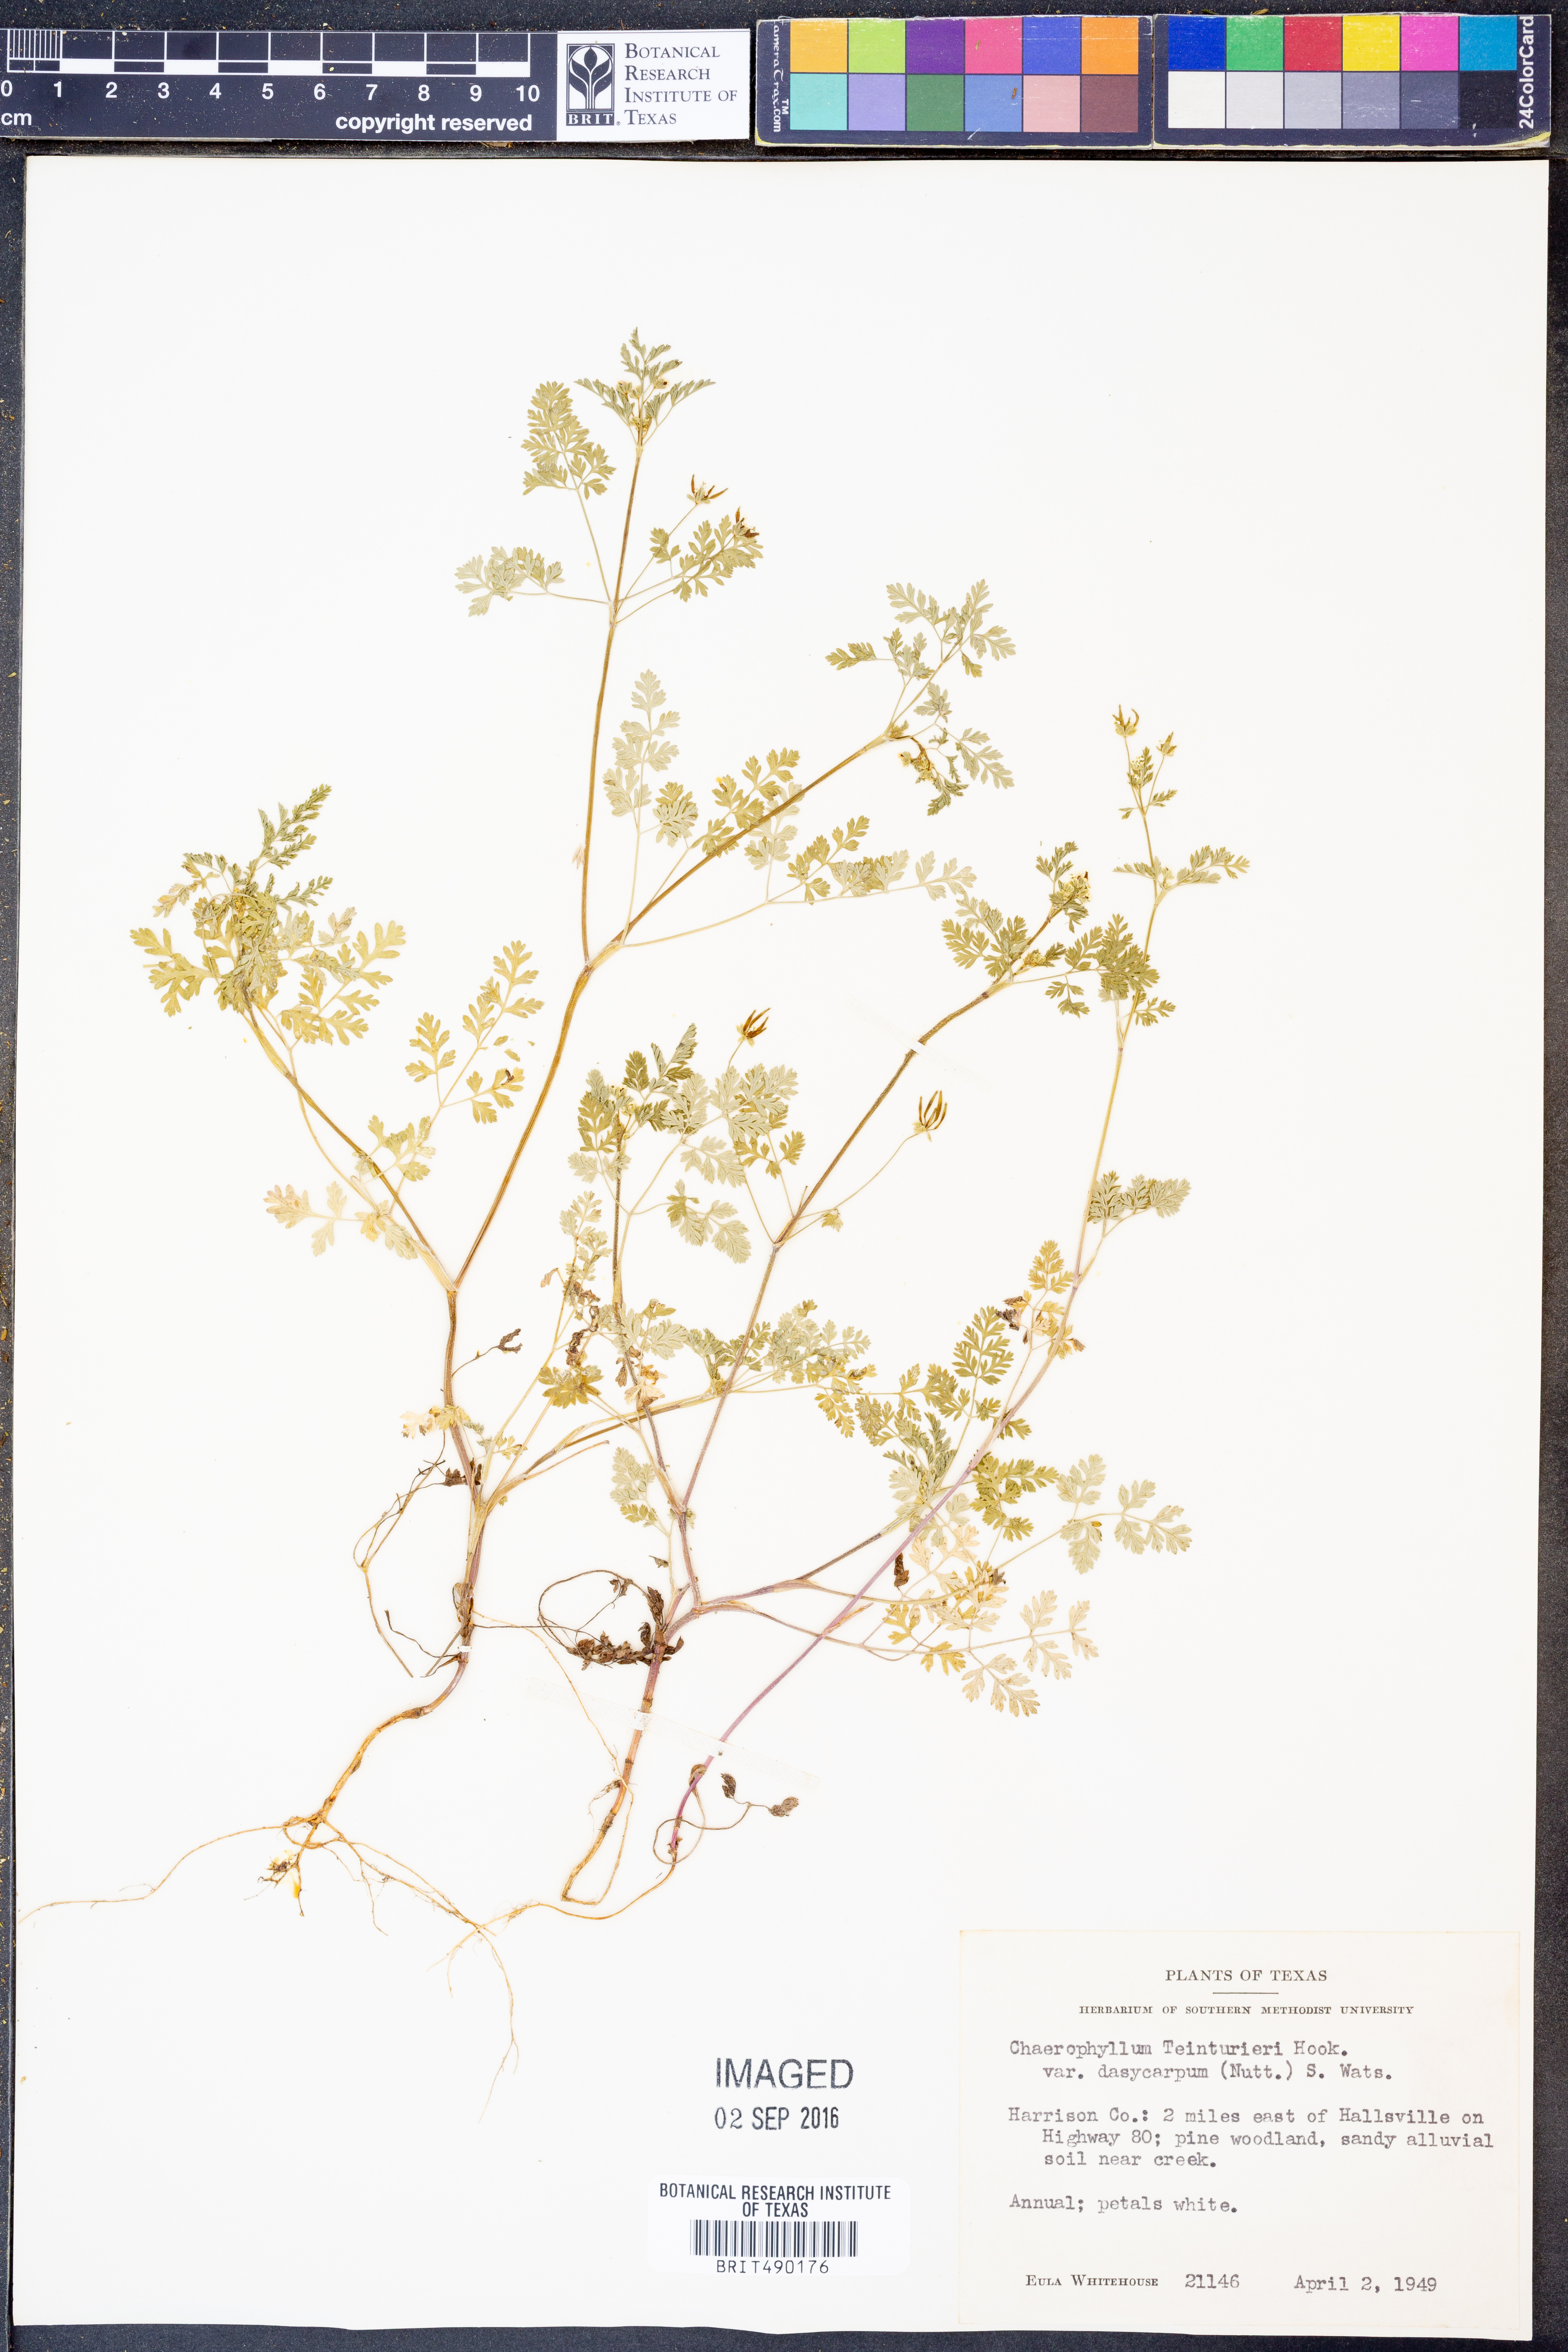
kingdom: Plantae
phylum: Tracheophyta
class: Magnoliopsida
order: Apiales
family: Apiaceae
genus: Chaerophyllum
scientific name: Chaerophyllum dasycarpum
